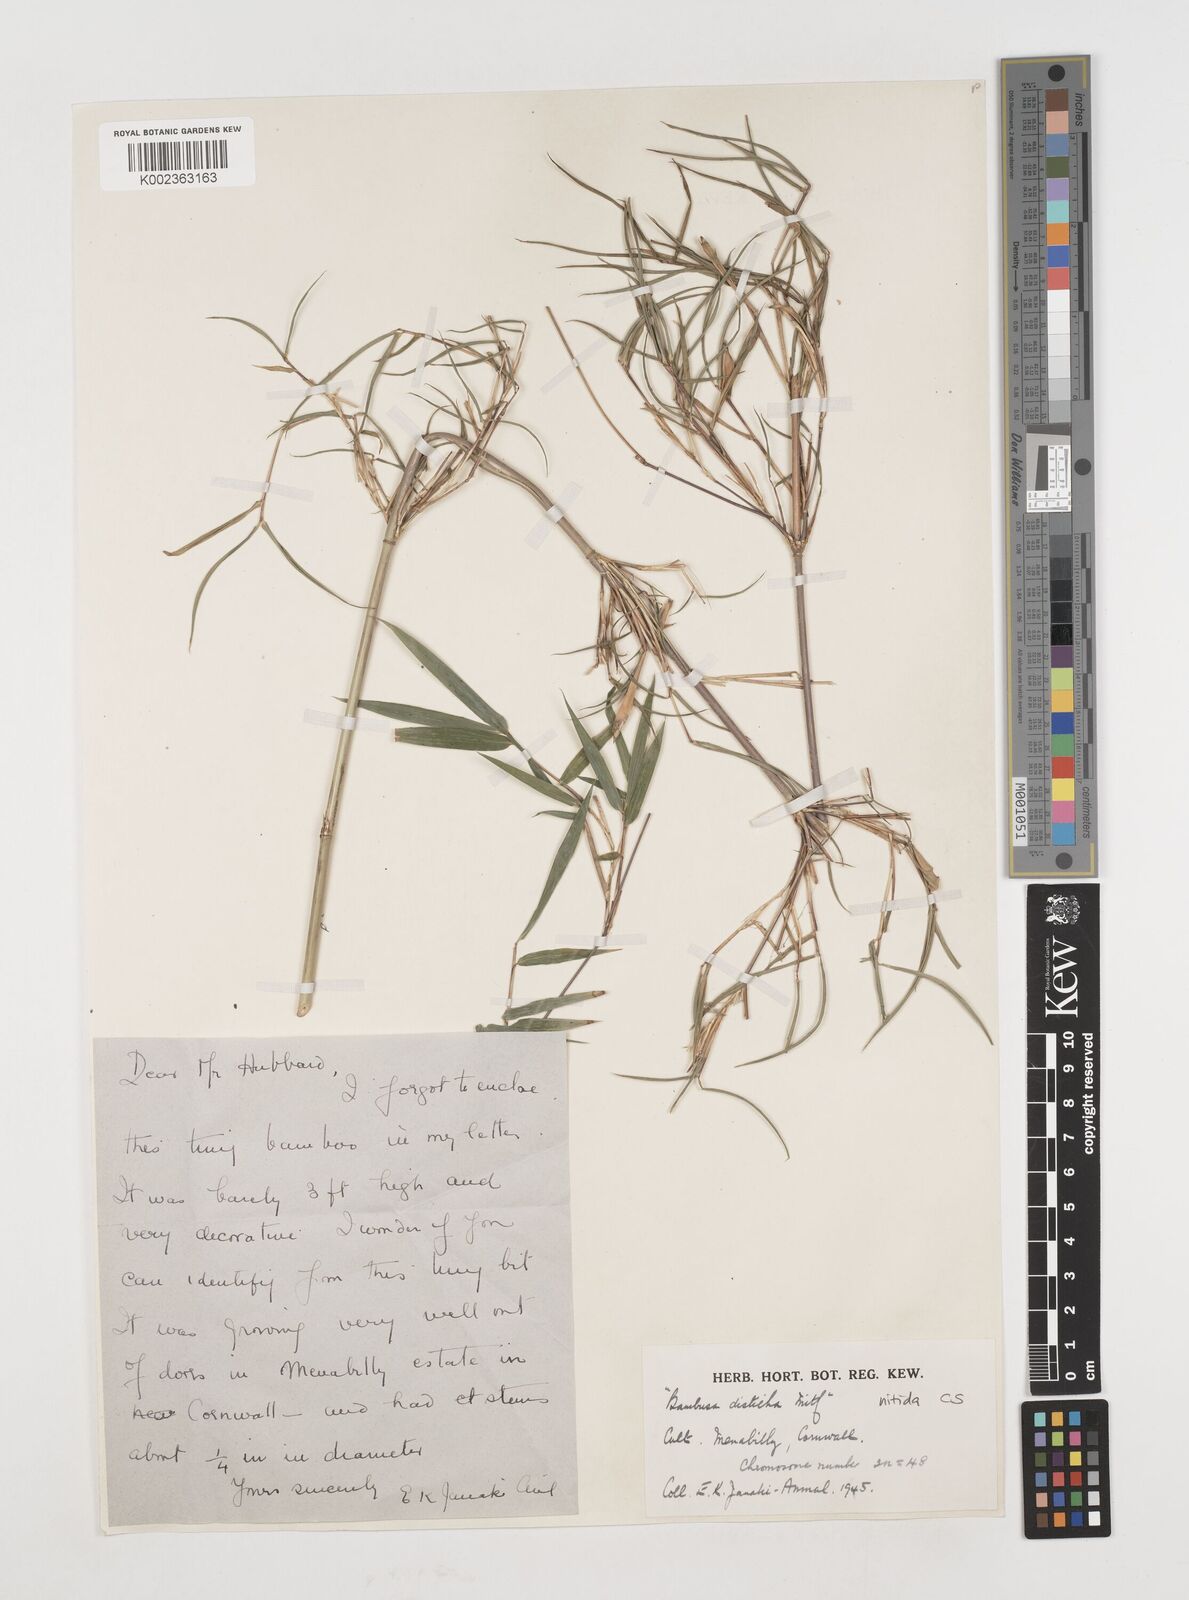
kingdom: Plantae
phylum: Tracheophyta
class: Liliopsida
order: Poales
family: Poaceae
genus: Fargesia
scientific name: Fargesia nitida ex
